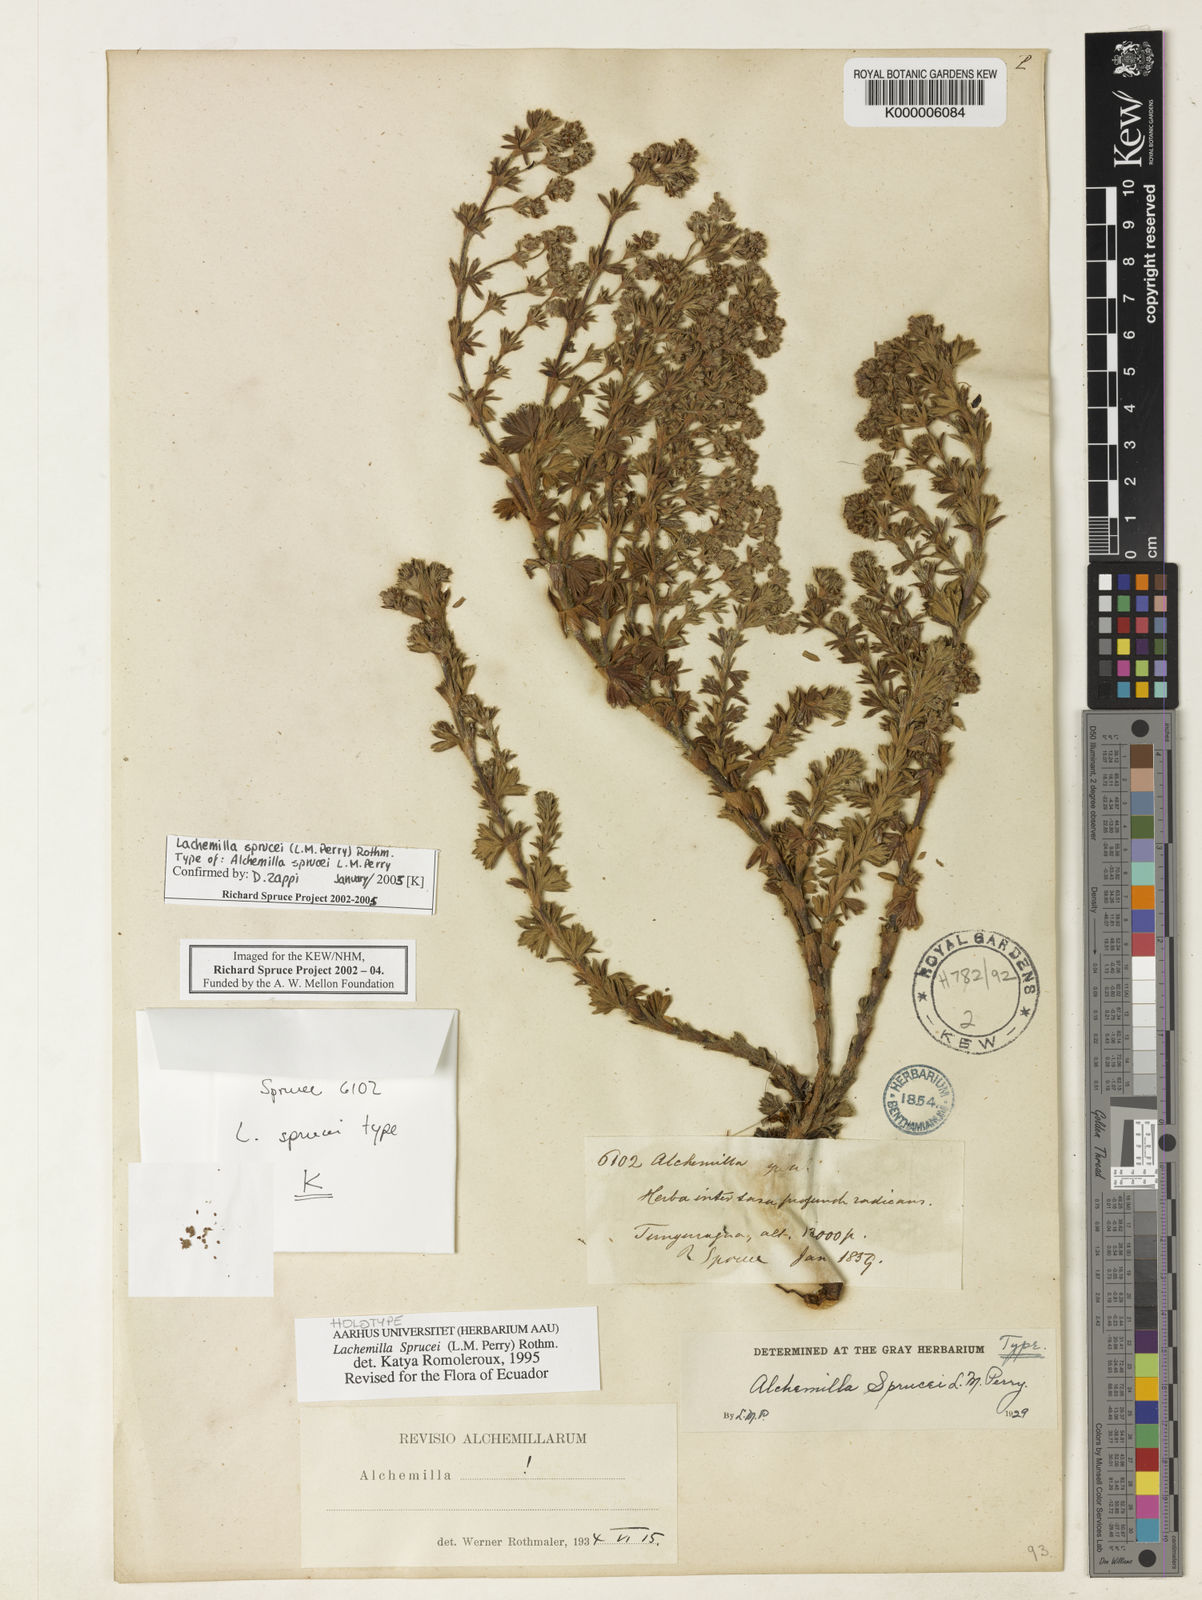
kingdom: Plantae
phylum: Tracheophyta
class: Magnoliopsida
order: Rosales
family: Rosaceae
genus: Lachemilla
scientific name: Lachemilla sibbaldiifolia
